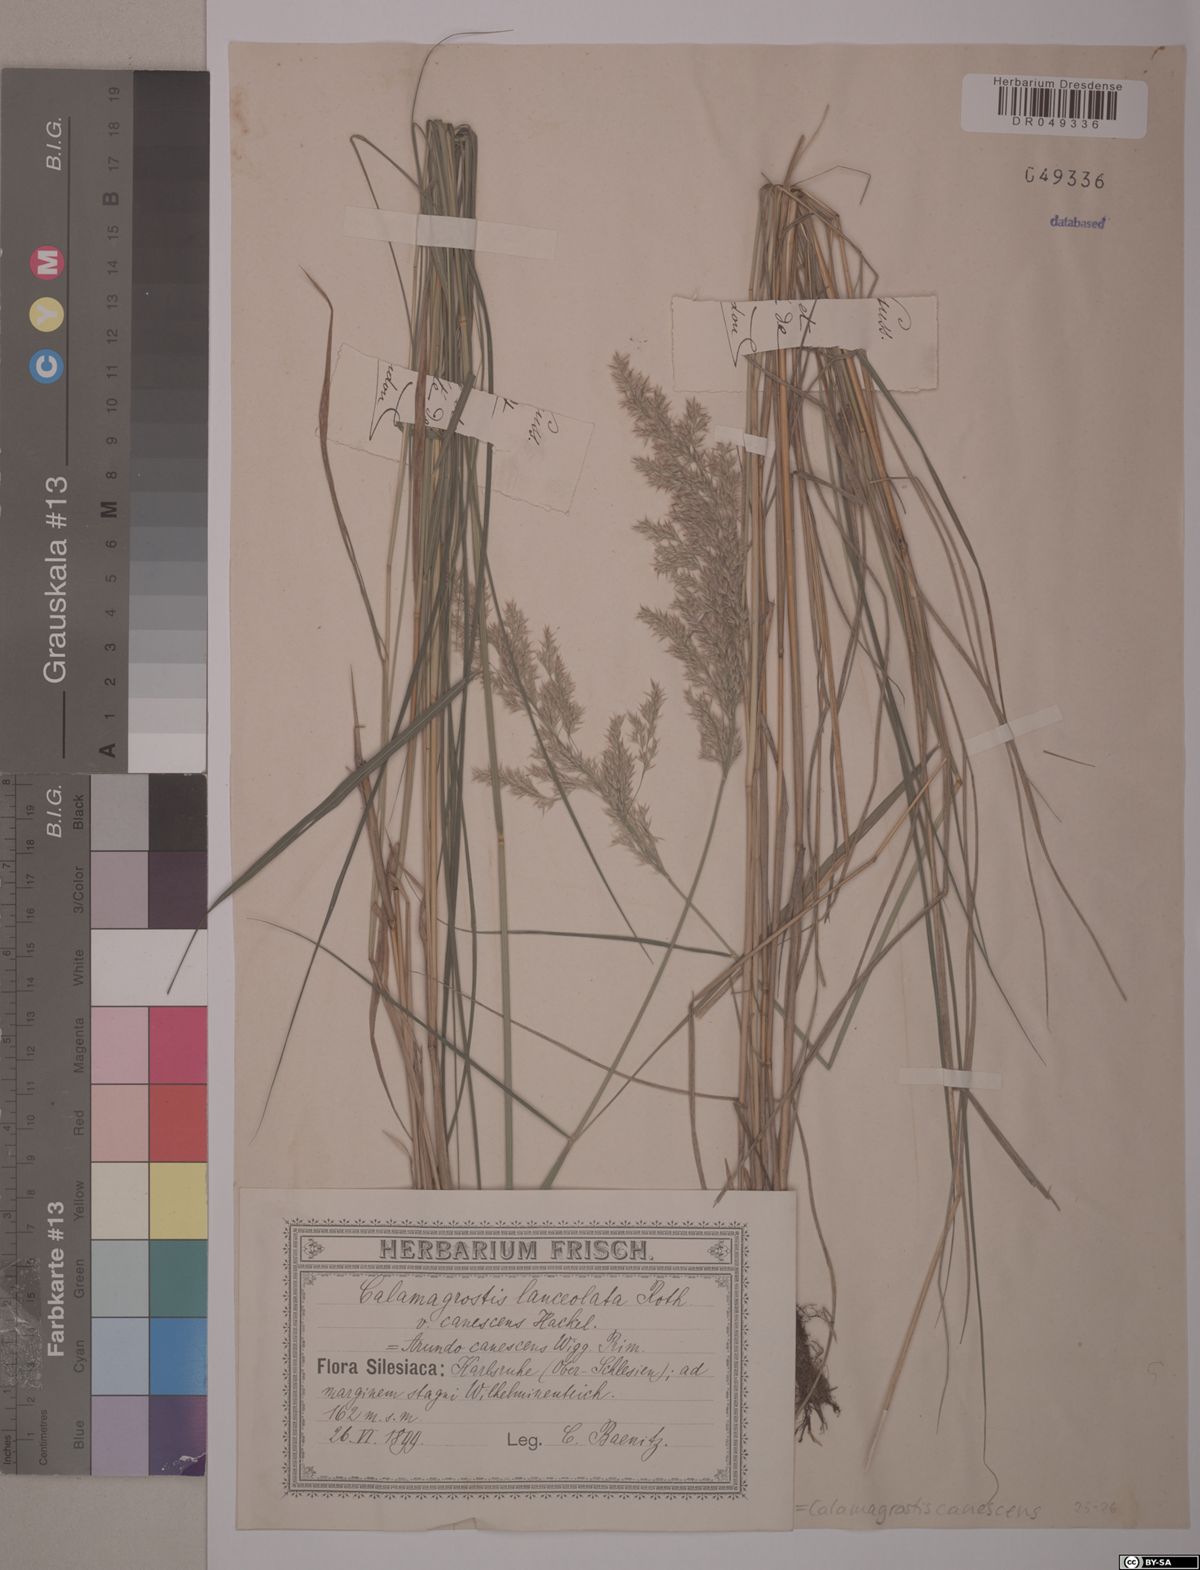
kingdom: Plantae
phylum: Tracheophyta
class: Liliopsida
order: Poales
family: Poaceae
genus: Calamagrostis
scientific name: Calamagrostis canescens
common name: Purple small-reed
